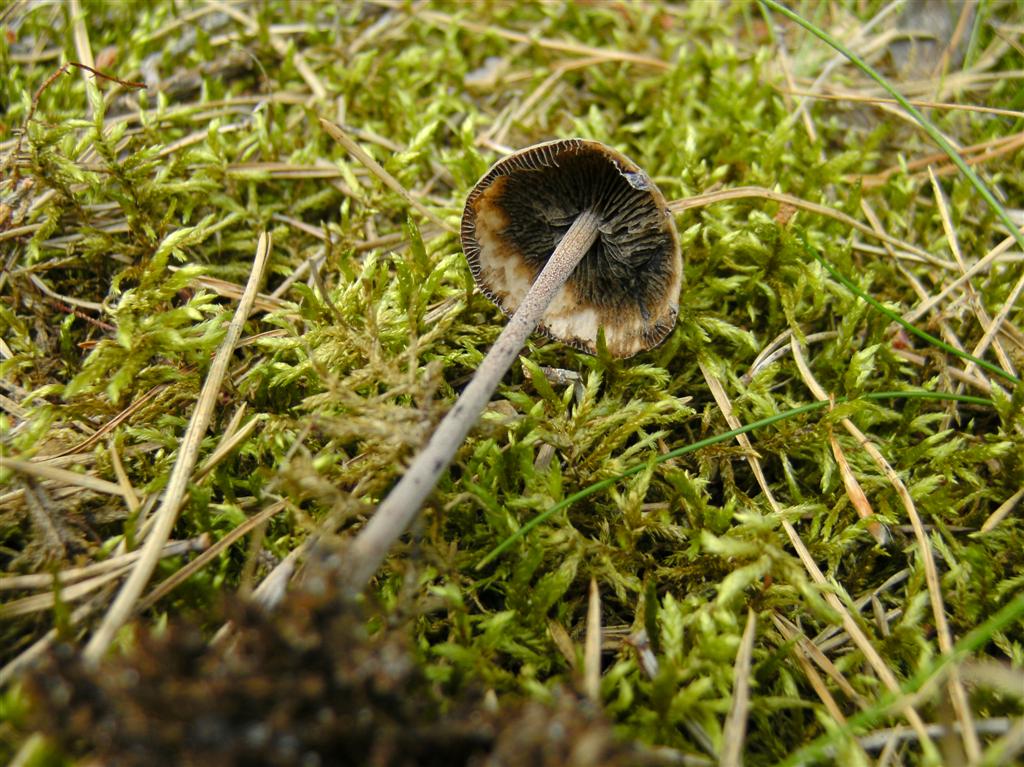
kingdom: Fungi
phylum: Basidiomycota
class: Agaricomycetes
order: Agaricales
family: Bolbitiaceae
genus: Panaeolus
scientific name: Panaeolus acuminatus
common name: høj glanshat
